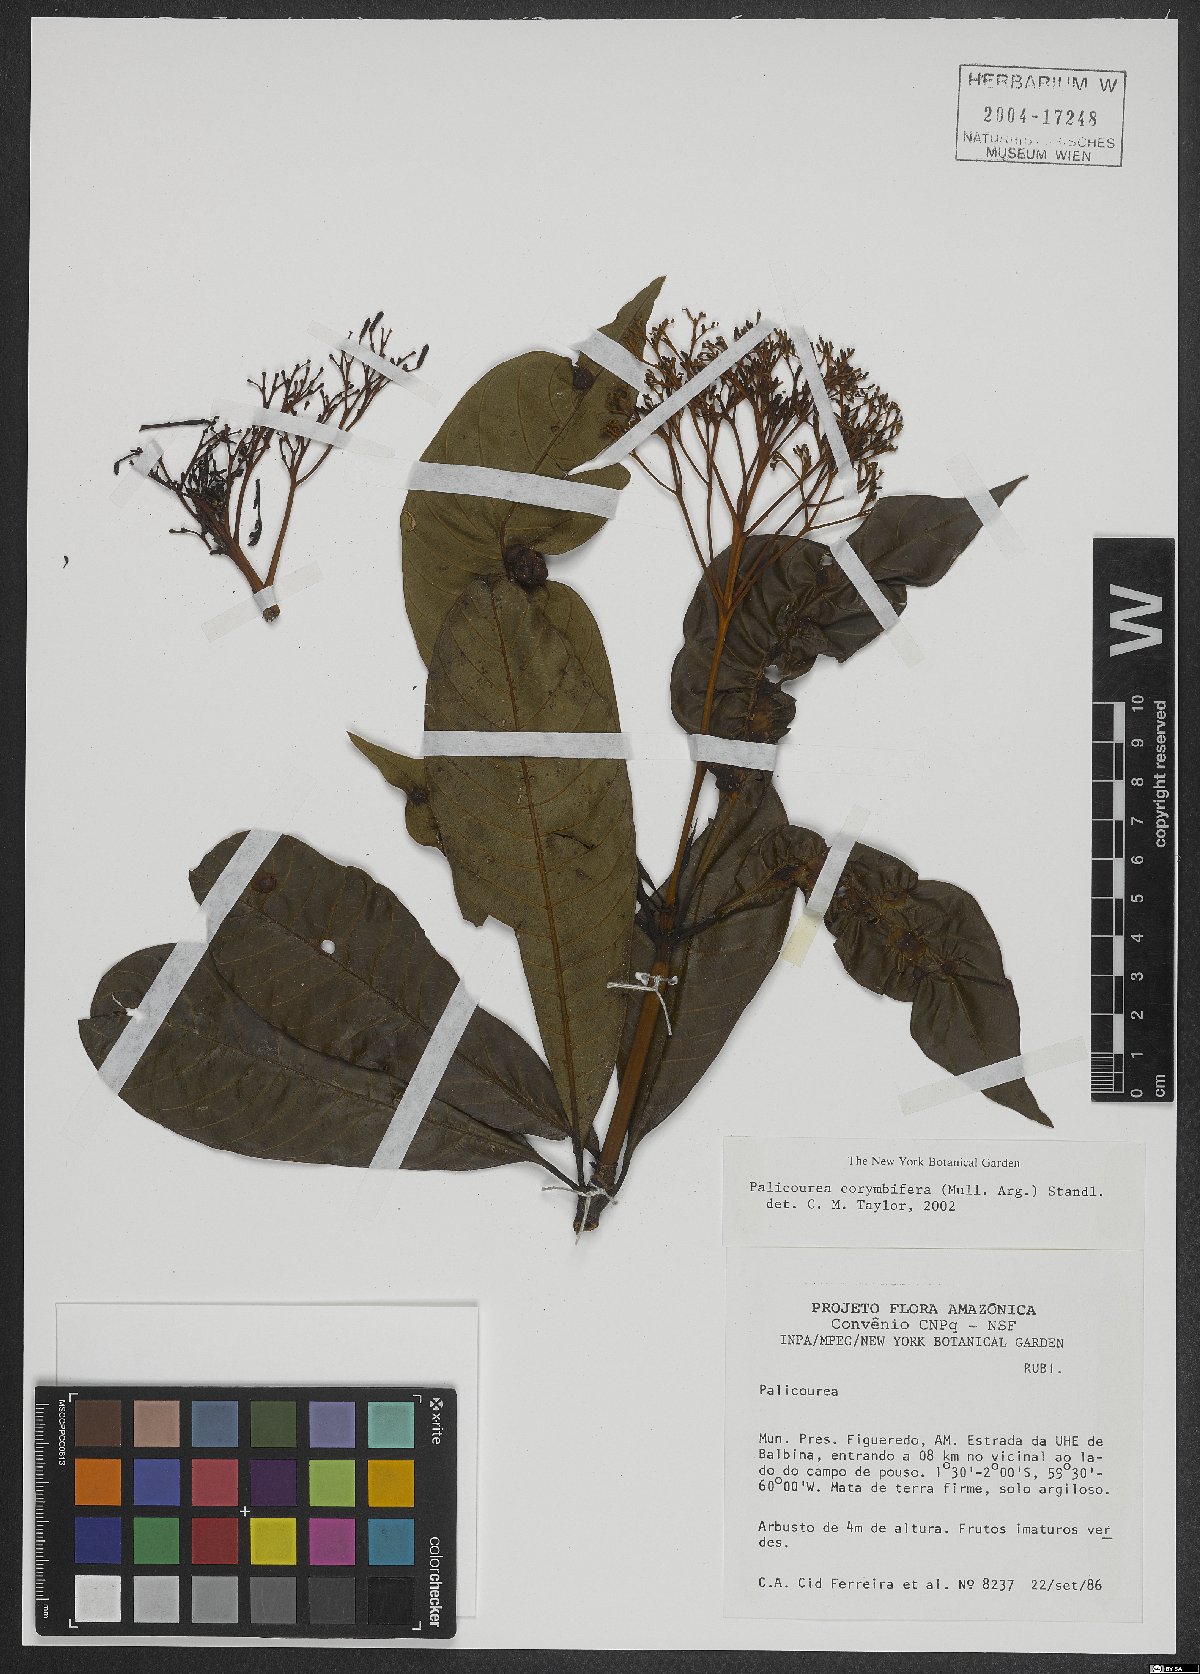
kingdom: Plantae
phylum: Tracheophyta
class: Magnoliopsida
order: Gentianales
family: Rubiaceae
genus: Palicourea
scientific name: Palicourea corymbifera
